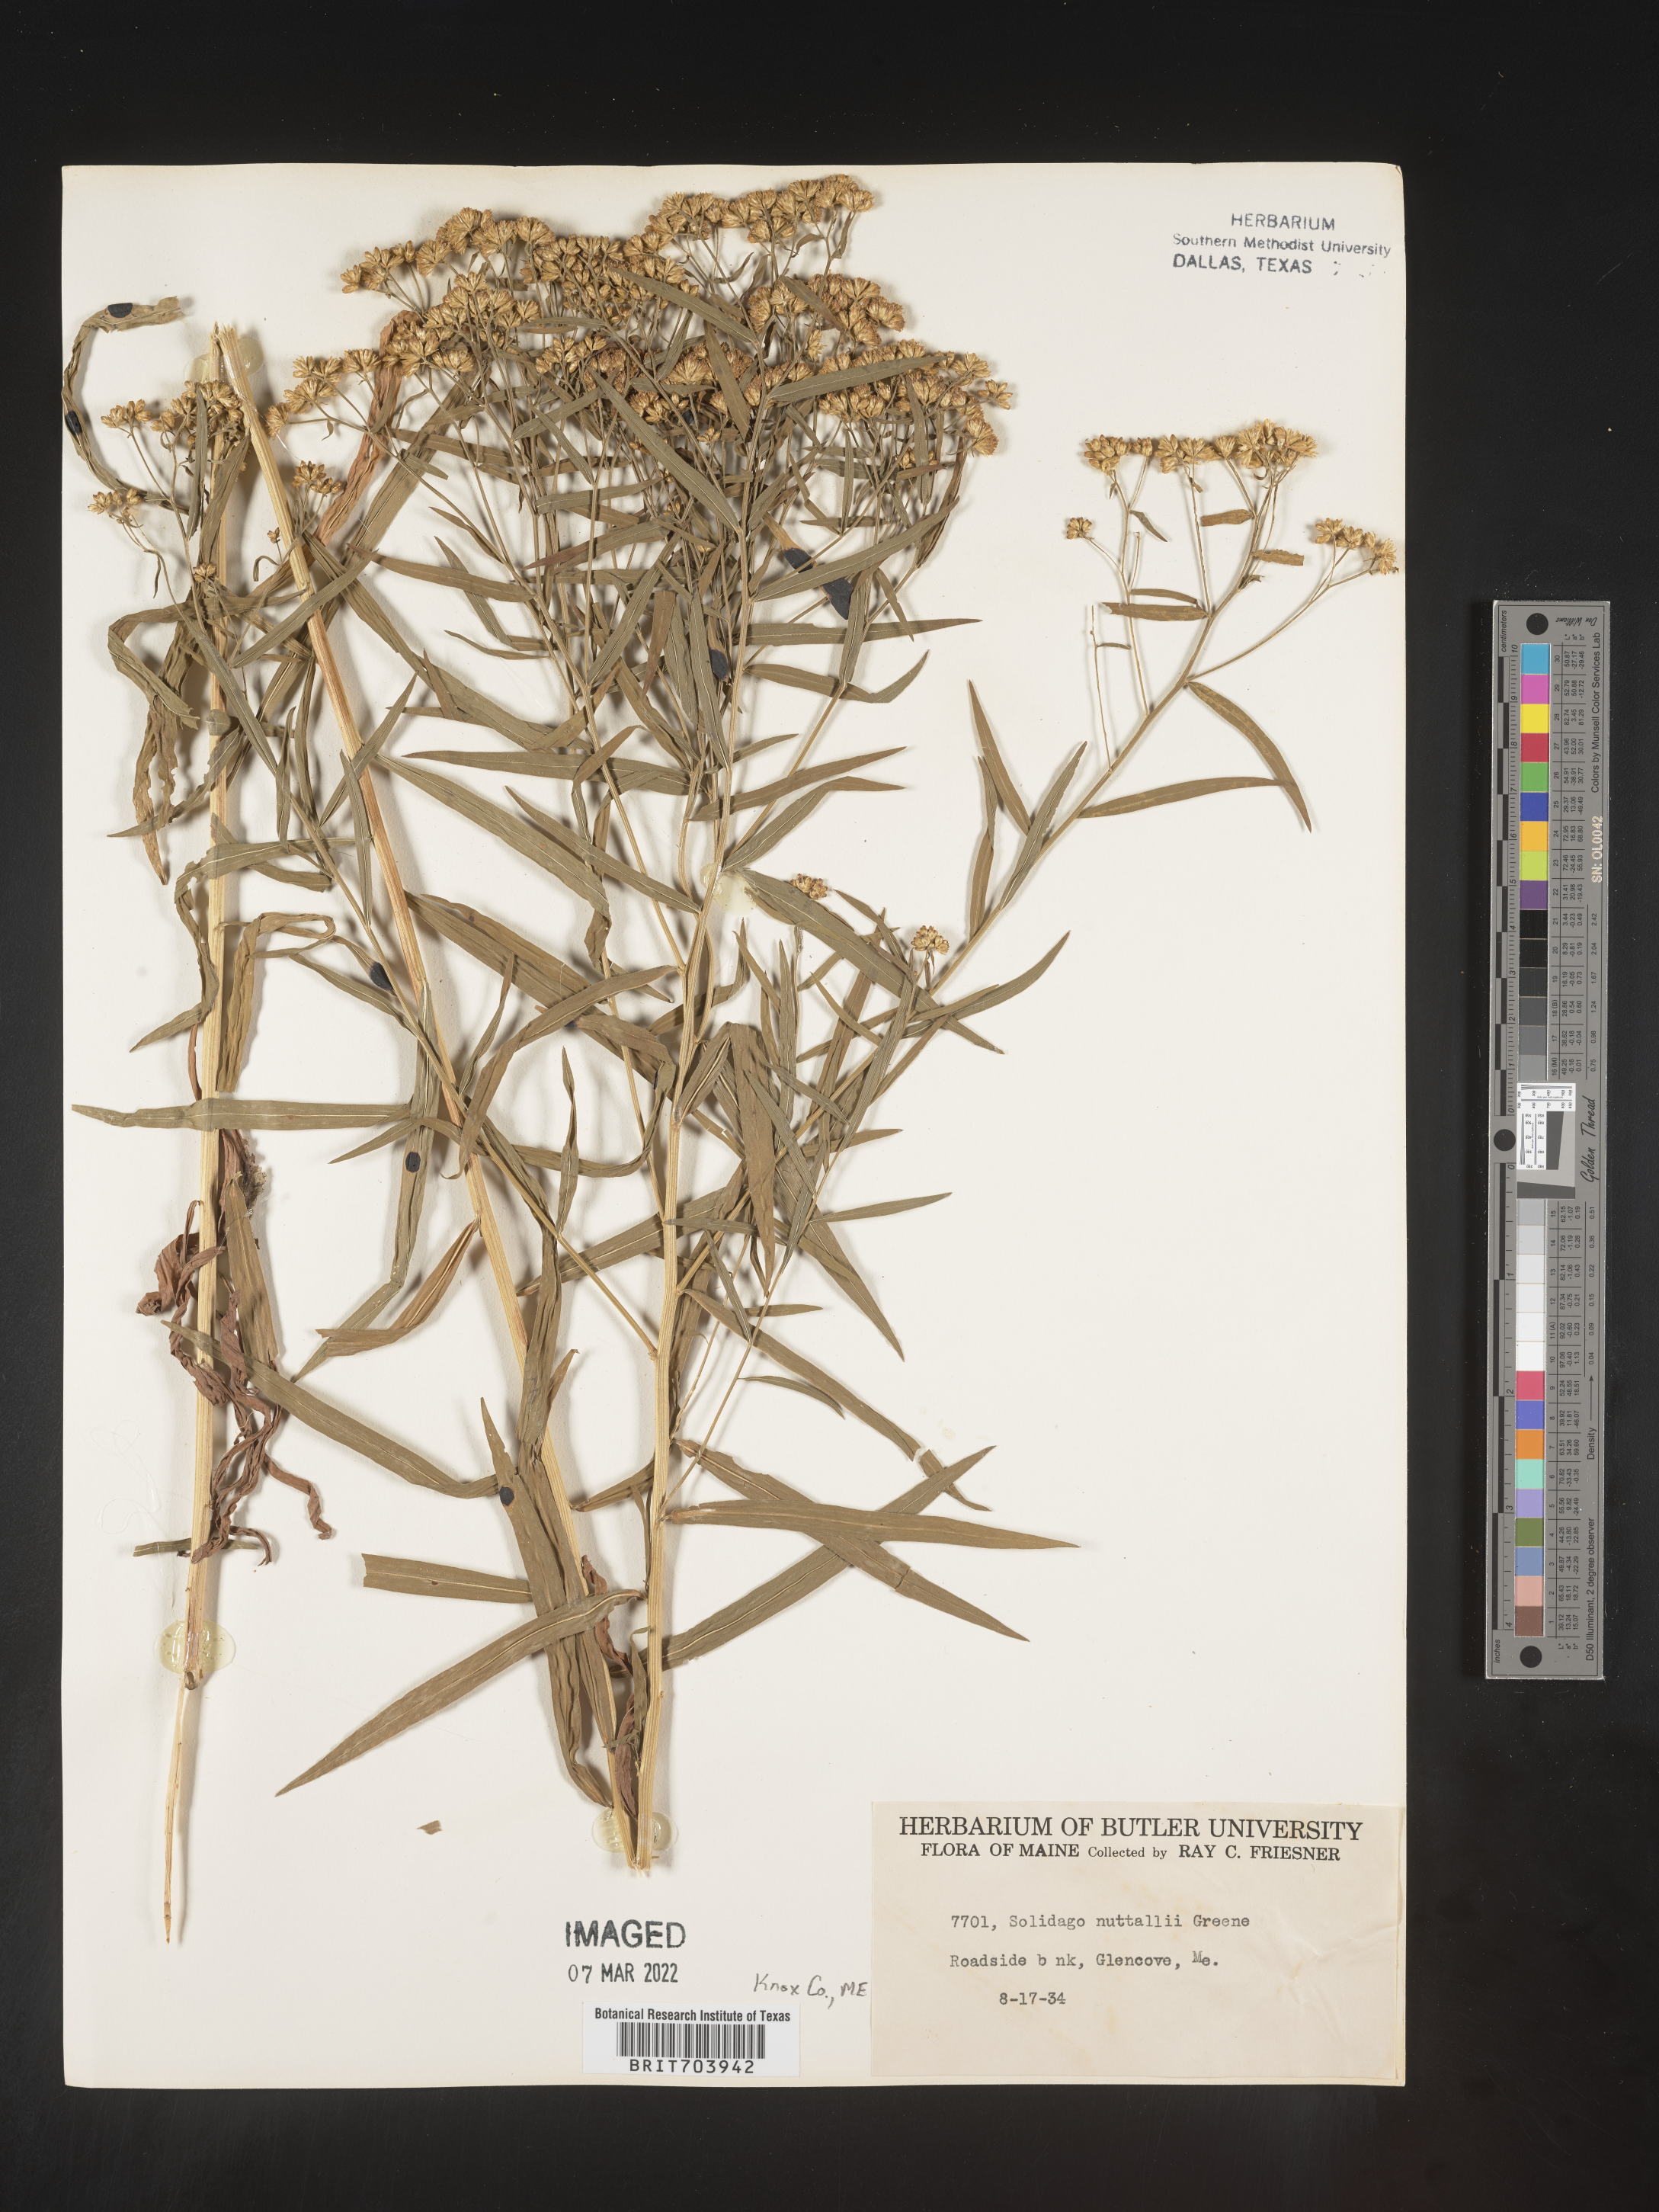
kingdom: Plantae
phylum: Tracheophyta
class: Magnoliopsida
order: Asterales
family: Asteraceae
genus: Euthamia
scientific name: Euthamia graminifolia
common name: Common goldentop
